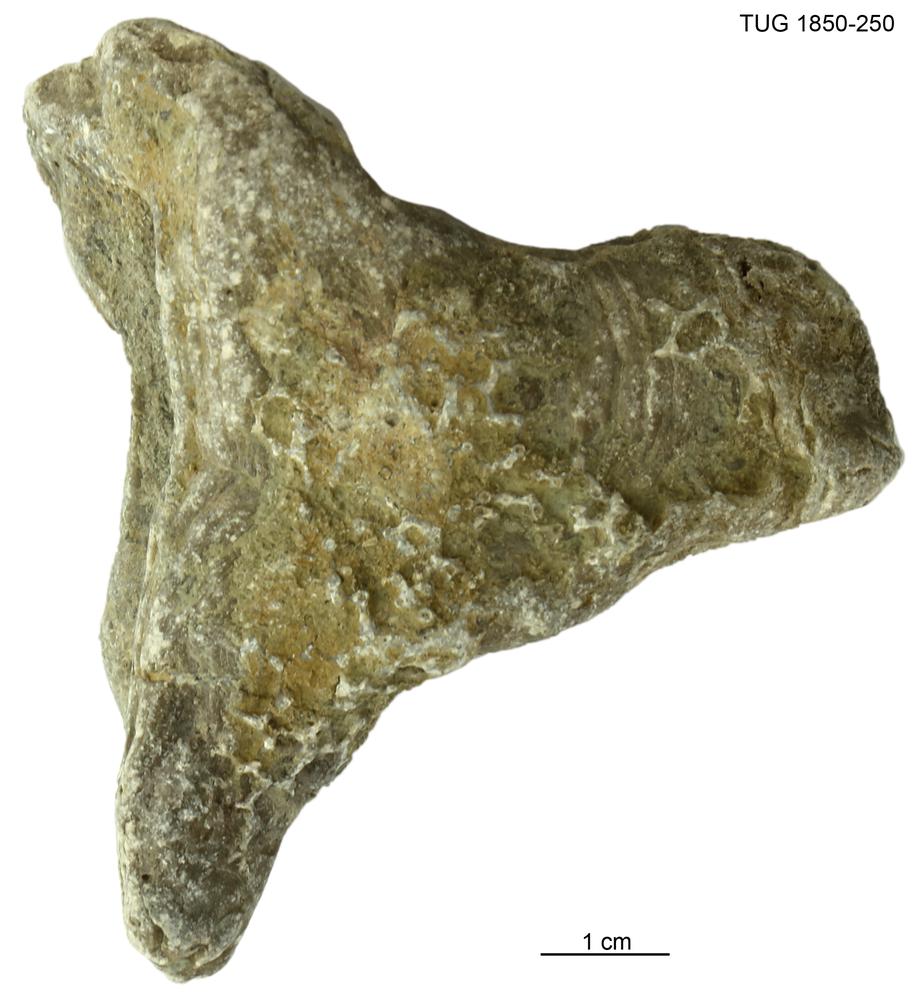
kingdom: Animalia
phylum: Porifera
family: Stromatoporidae
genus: Stromatopora
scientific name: Stromatopora
